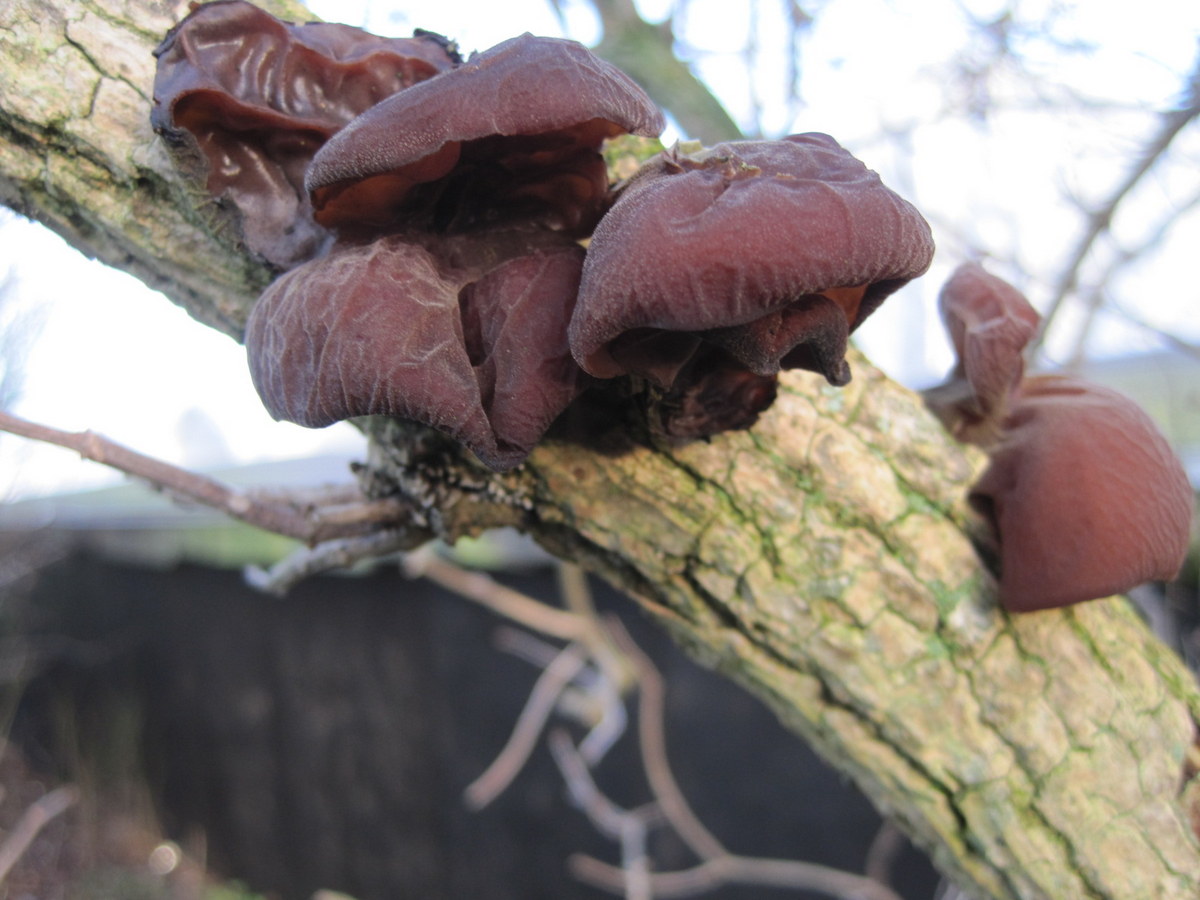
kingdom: Fungi
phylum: Basidiomycota
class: Agaricomycetes
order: Auriculariales
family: Auriculariaceae
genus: Auricularia
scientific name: Auricularia auricula-judae
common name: almindelig judasøre
